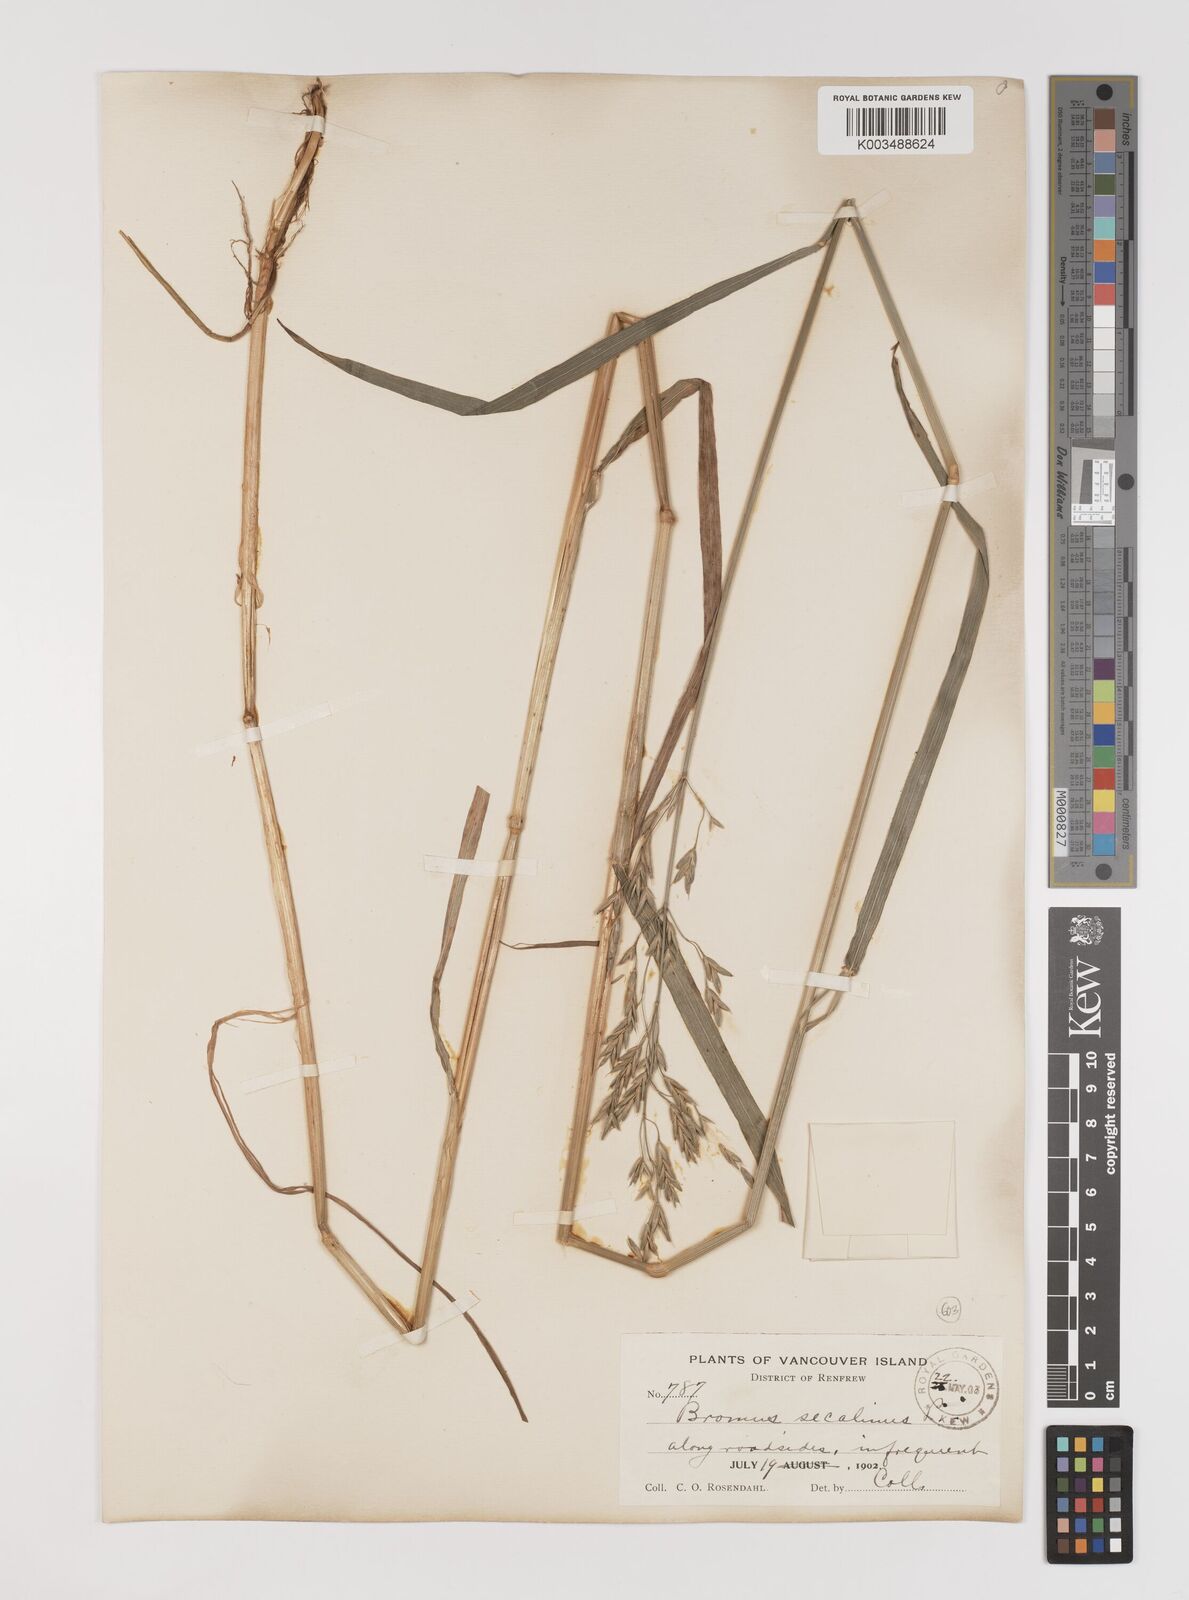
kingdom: Plantae
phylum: Tracheophyta
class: Liliopsida
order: Poales
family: Poaceae
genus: Bromus
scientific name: Bromus secalinus
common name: Rye brome
